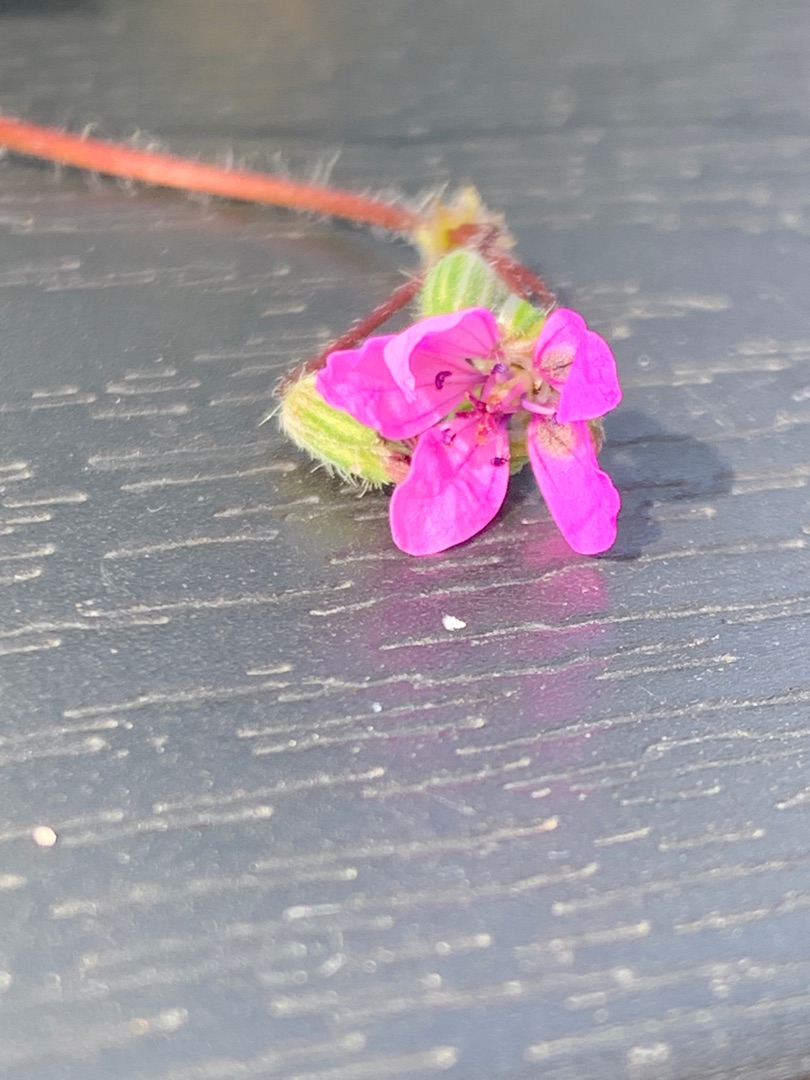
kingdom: Plantae
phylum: Tracheophyta
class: Magnoliopsida
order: Geraniales
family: Geraniaceae
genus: Erodium
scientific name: Erodium cicutarium
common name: Hejrenæb
